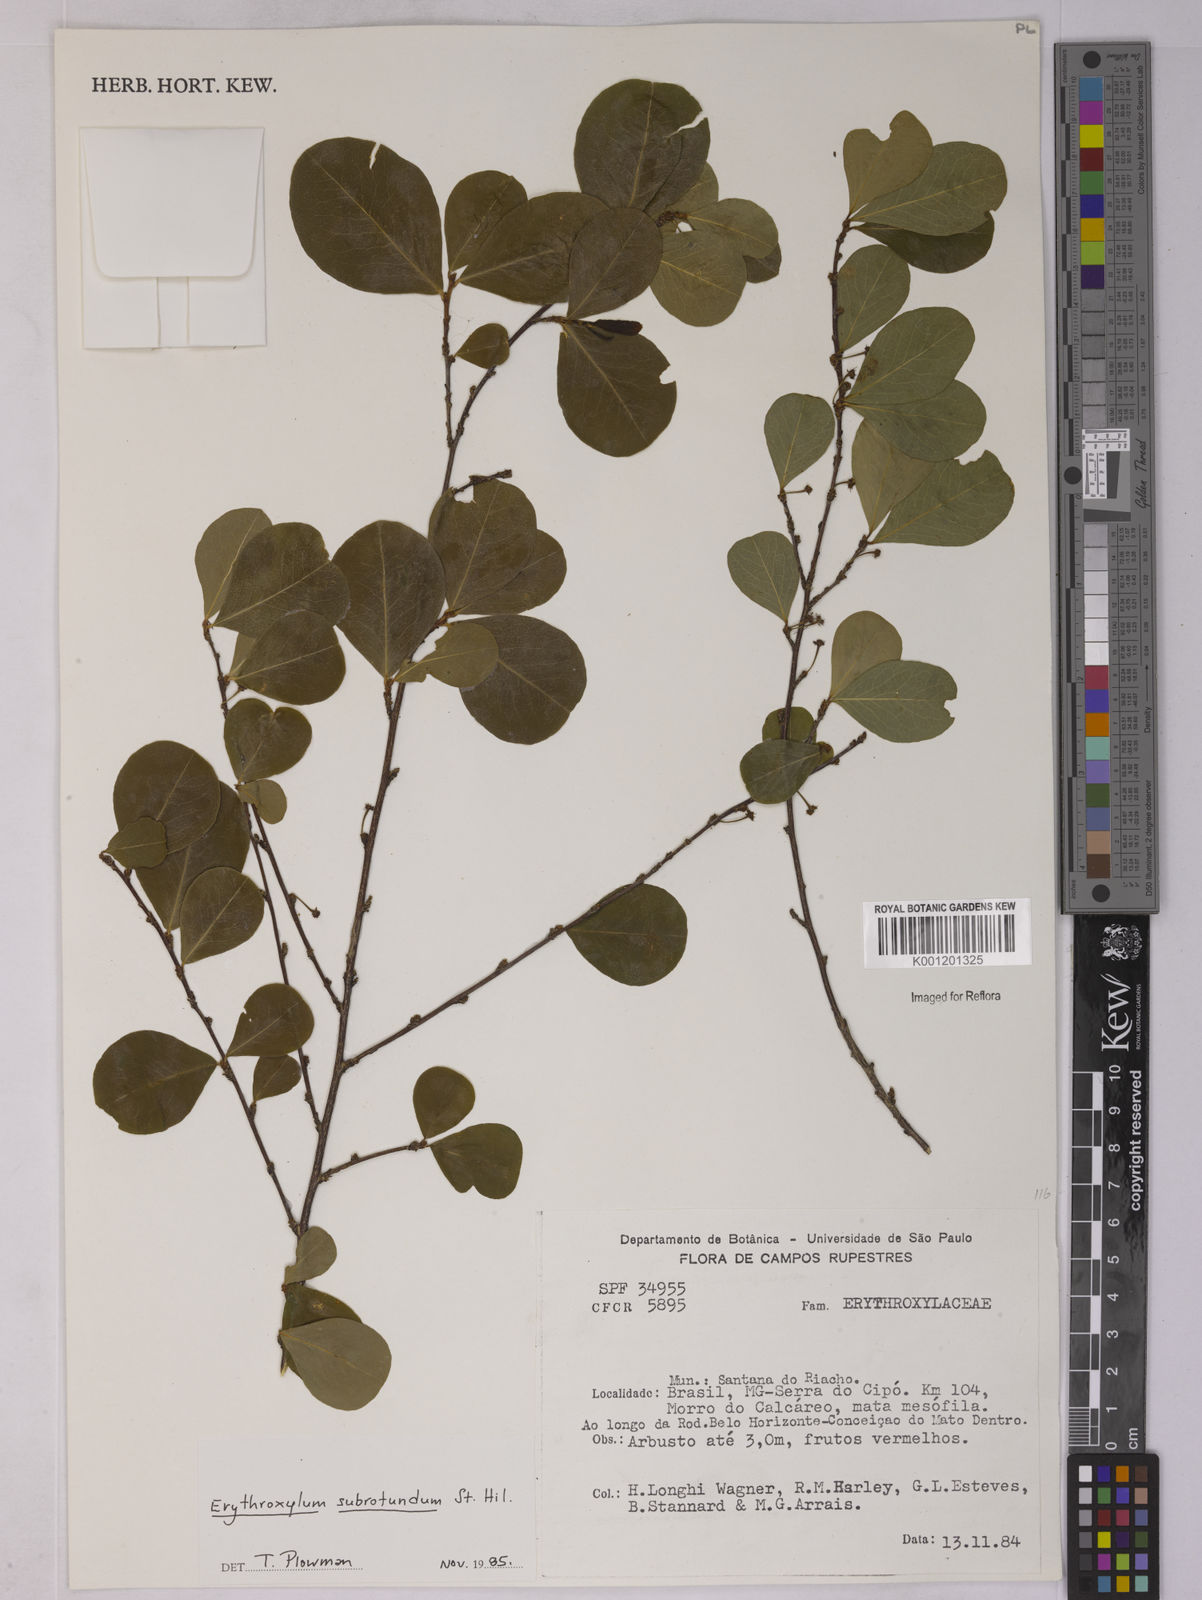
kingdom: Plantae
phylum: Tracheophyta
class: Magnoliopsida
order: Malpighiales
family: Erythroxylaceae
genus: Erythroxylum
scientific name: Erythroxylum subrotundum
